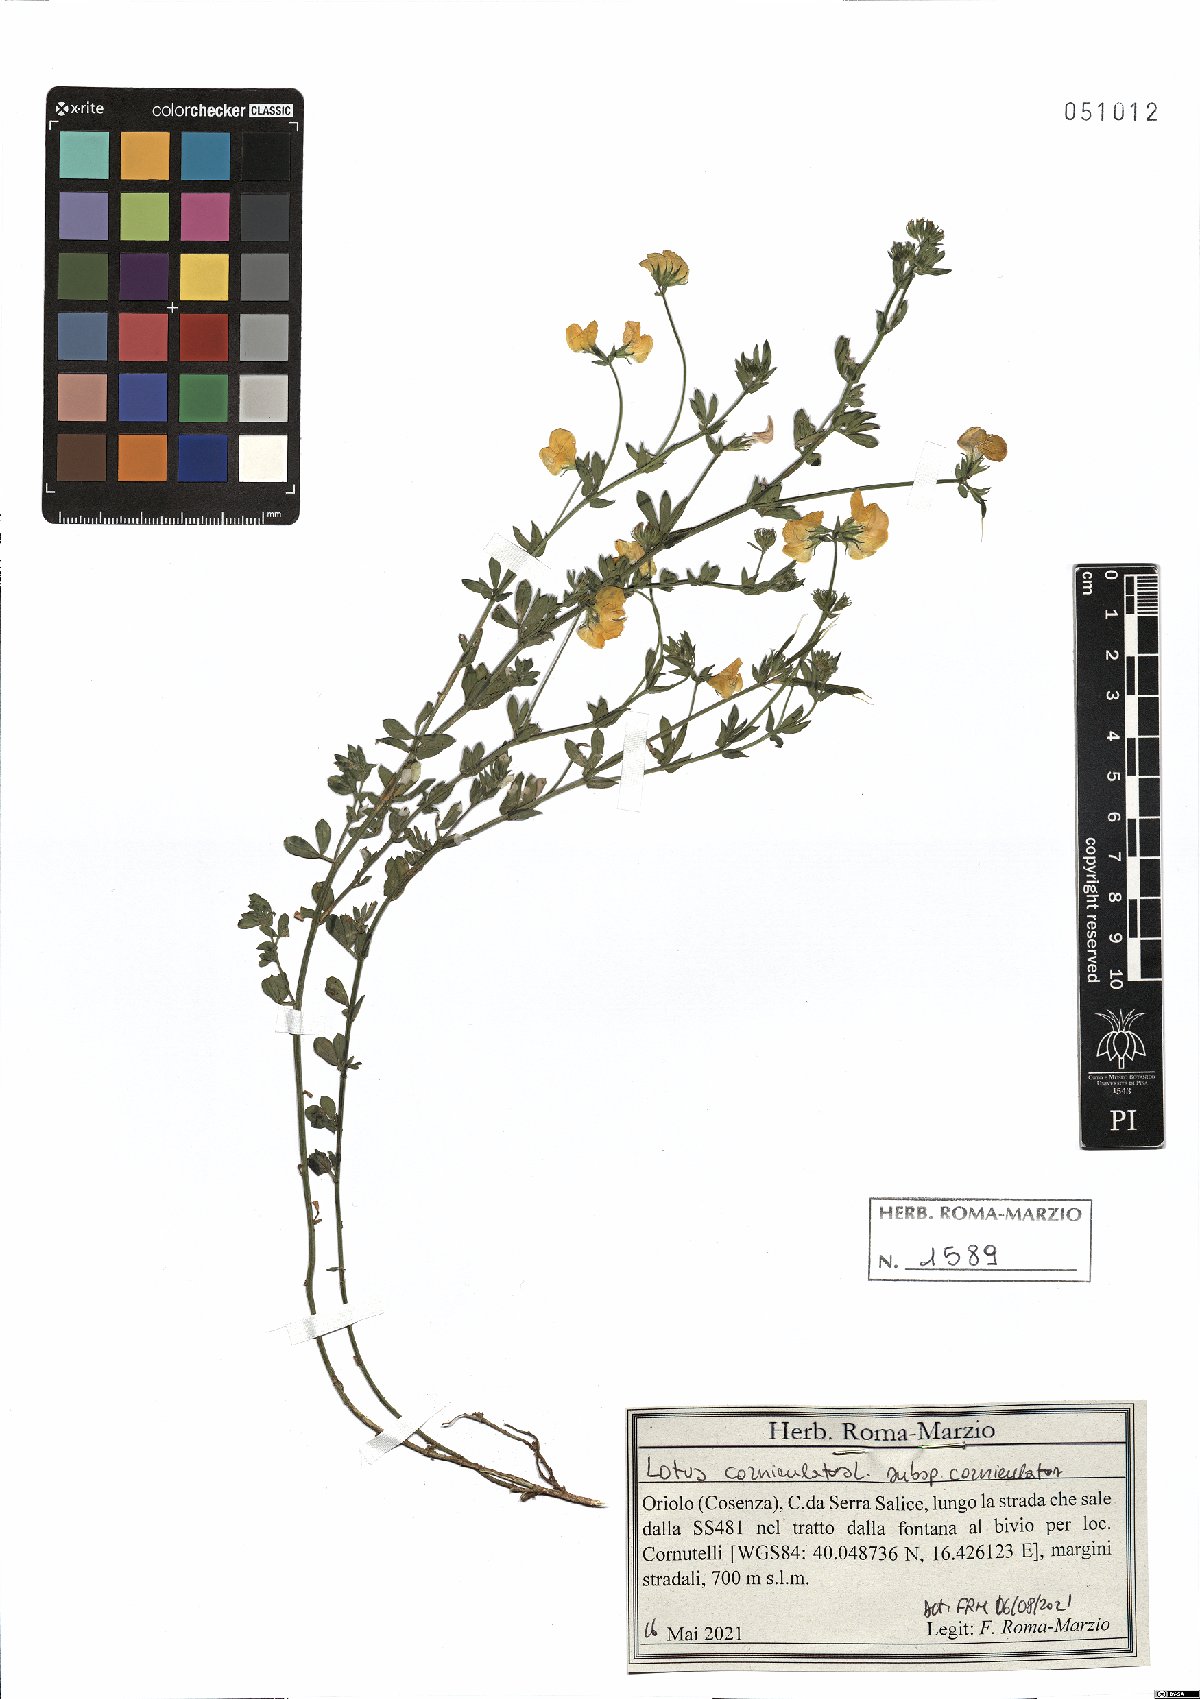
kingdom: Plantae
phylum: Tracheophyta
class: Magnoliopsida
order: Fabales
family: Fabaceae
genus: Lotus
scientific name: Lotus corniculatus
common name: Common bird's-foot-trefoil
